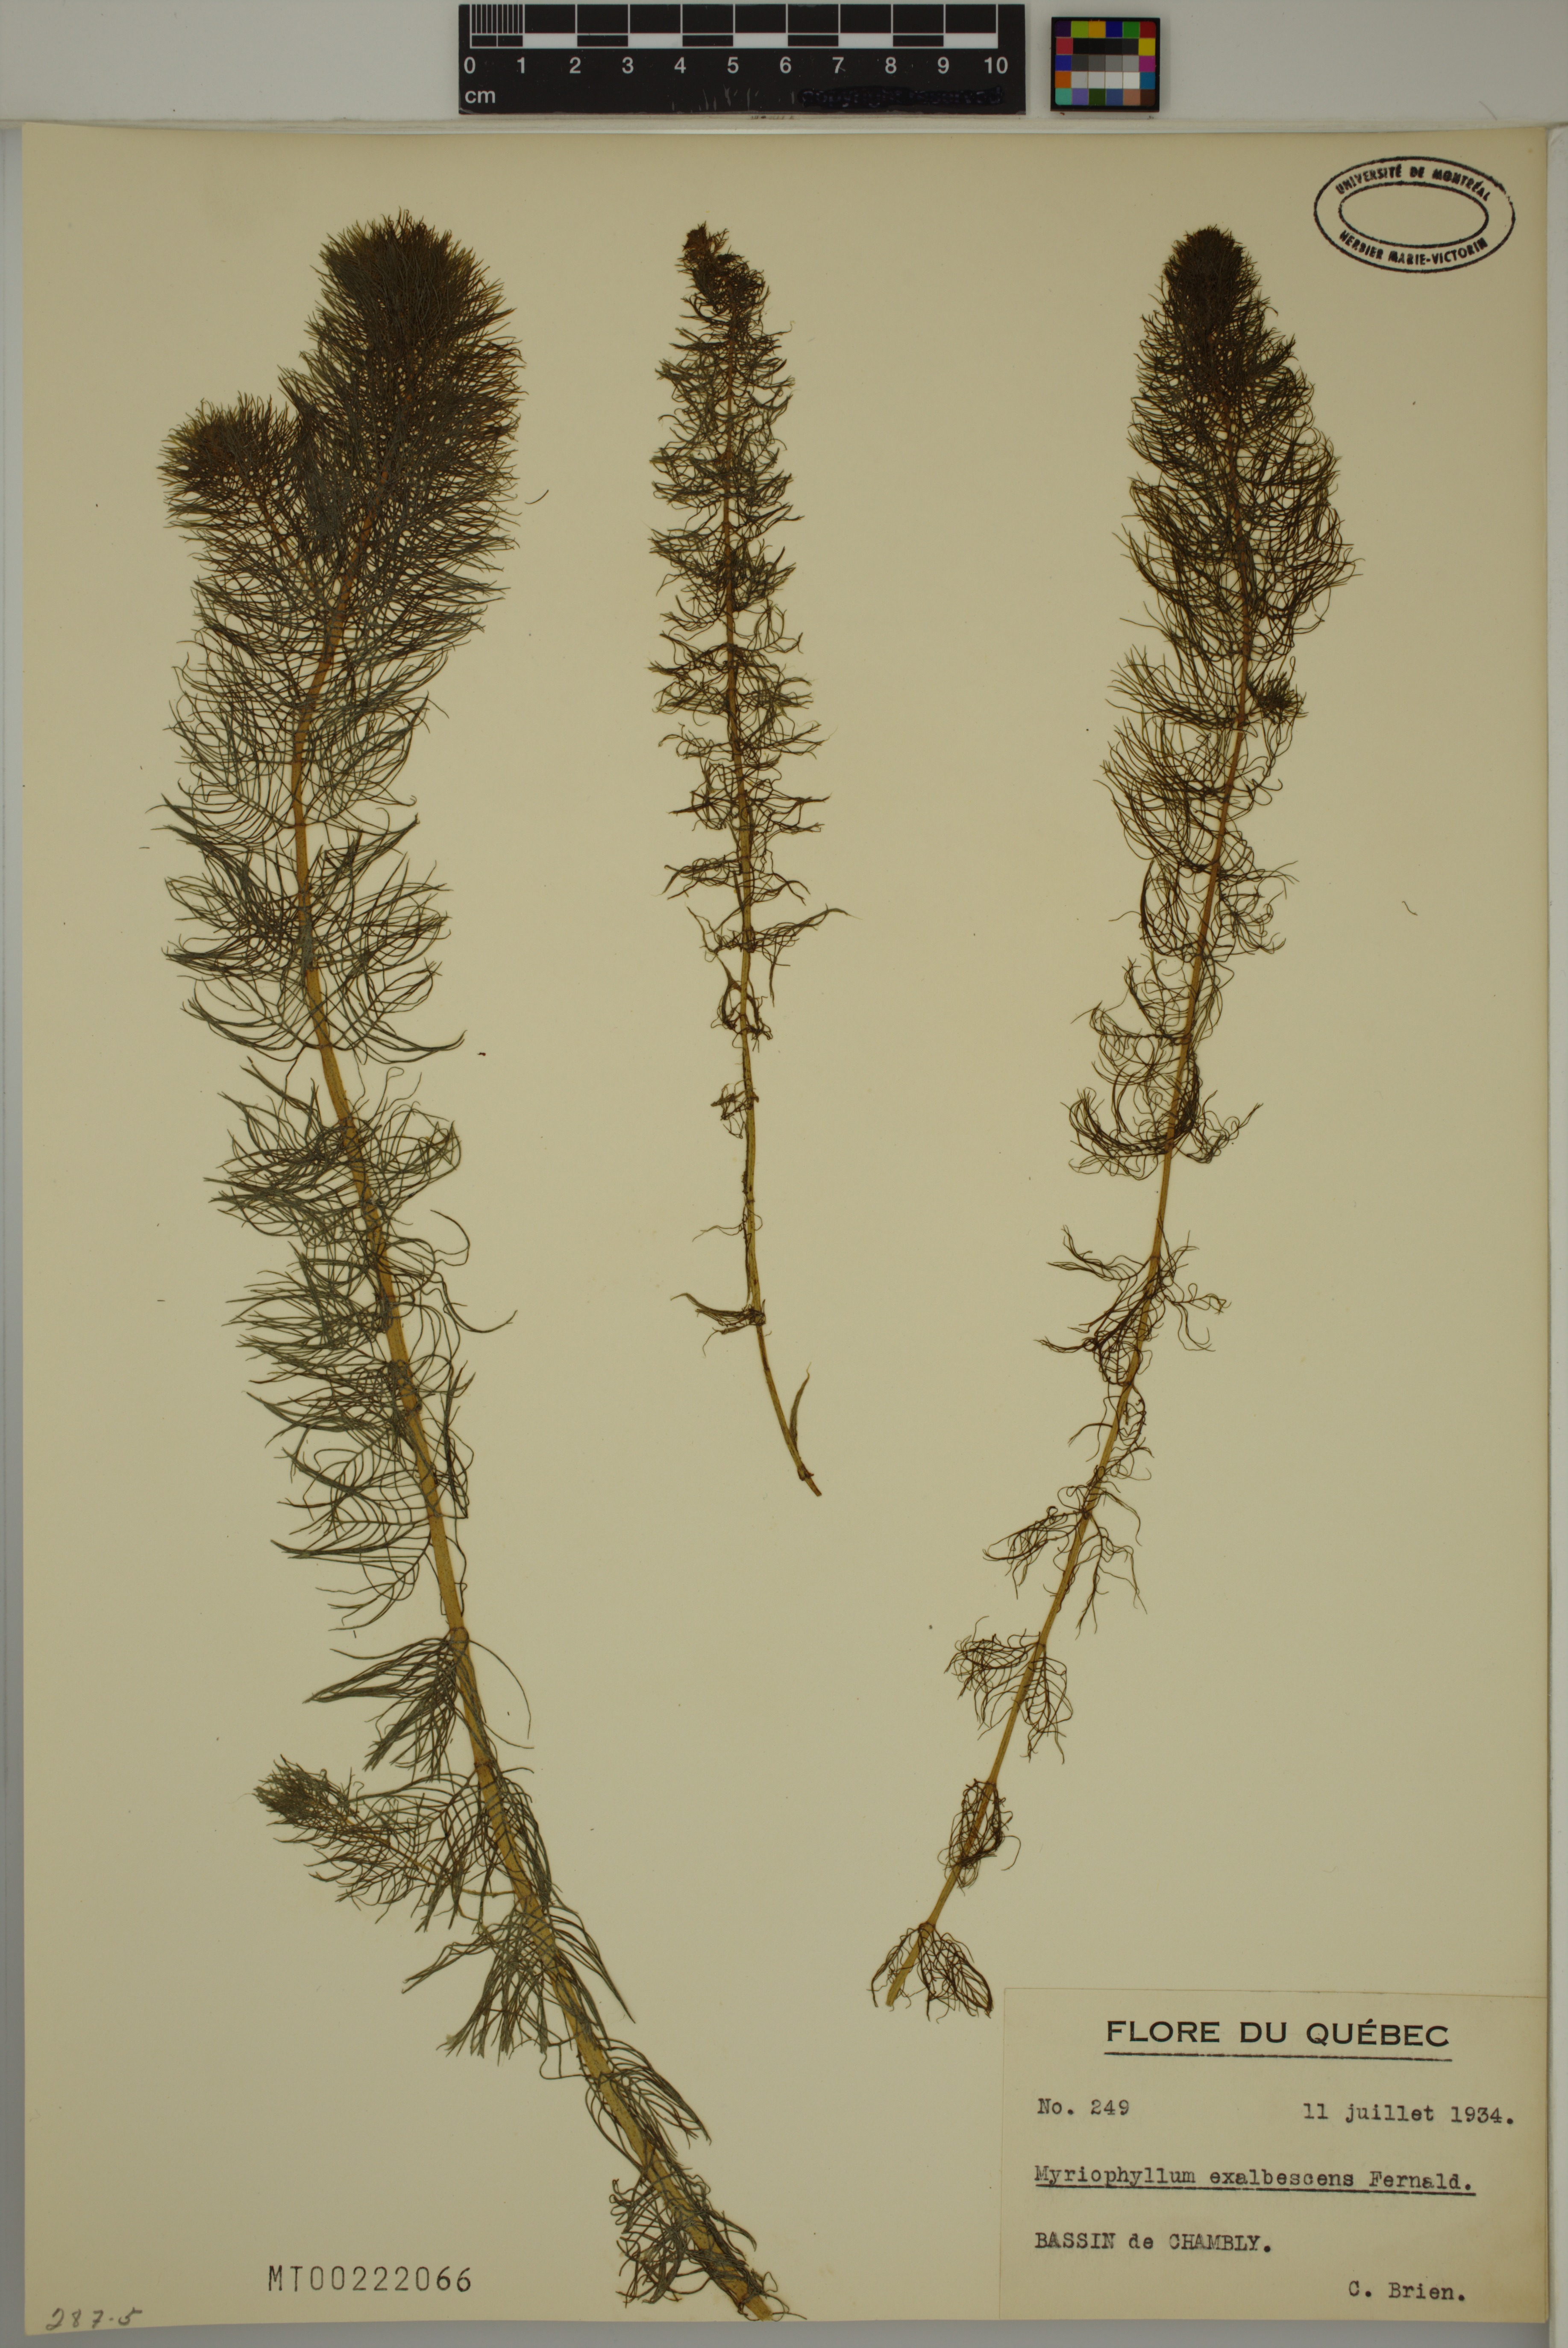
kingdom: Plantae
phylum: Tracheophyta
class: Magnoliopsida
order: Saxifragales
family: Haloragaceae
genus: Myriophyllum
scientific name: Myriophyllum sibiricum
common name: Siberian water-milfoil
